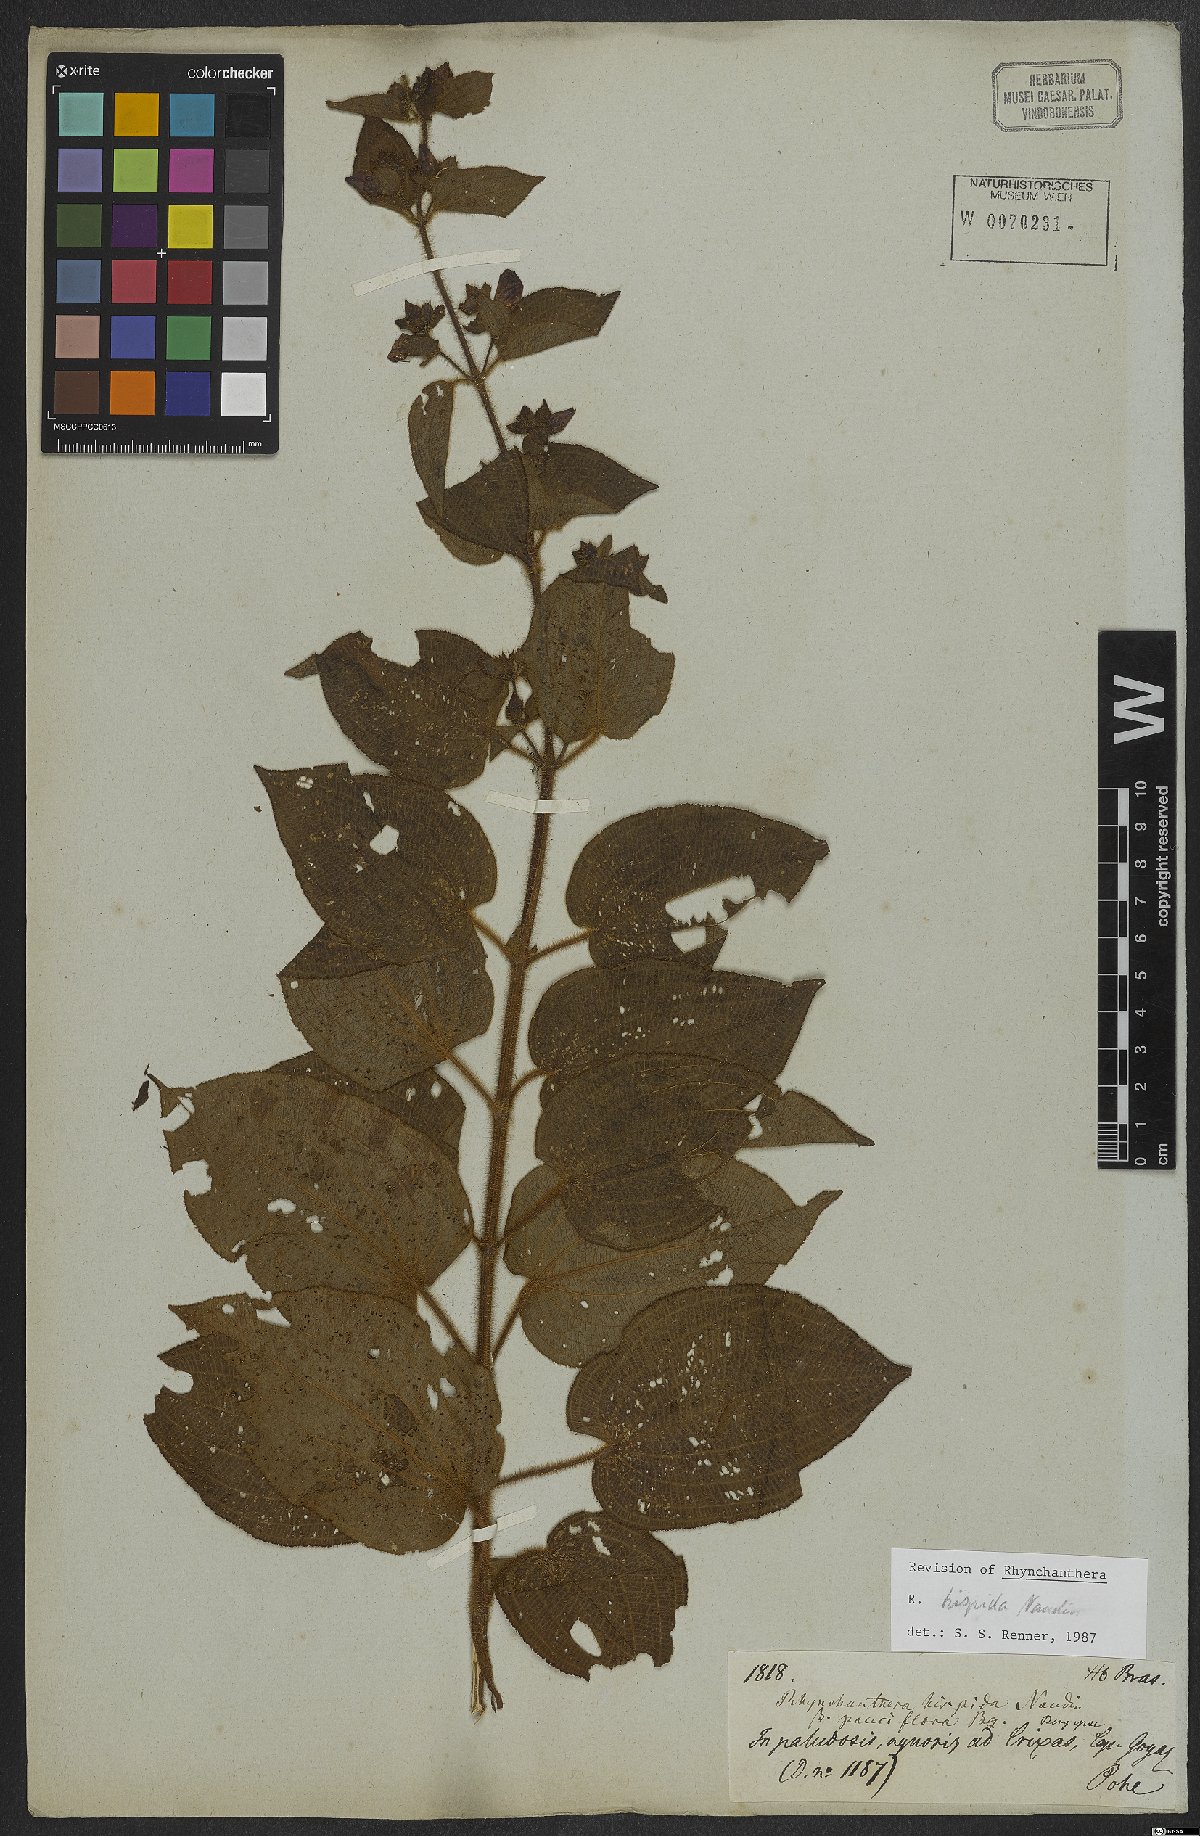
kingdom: Plantae
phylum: Tracheophyta
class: Magnoliopsida
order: Myrtales
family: Melastomataceae
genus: Rhynchanthera
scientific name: Rhynchanthera hispida
